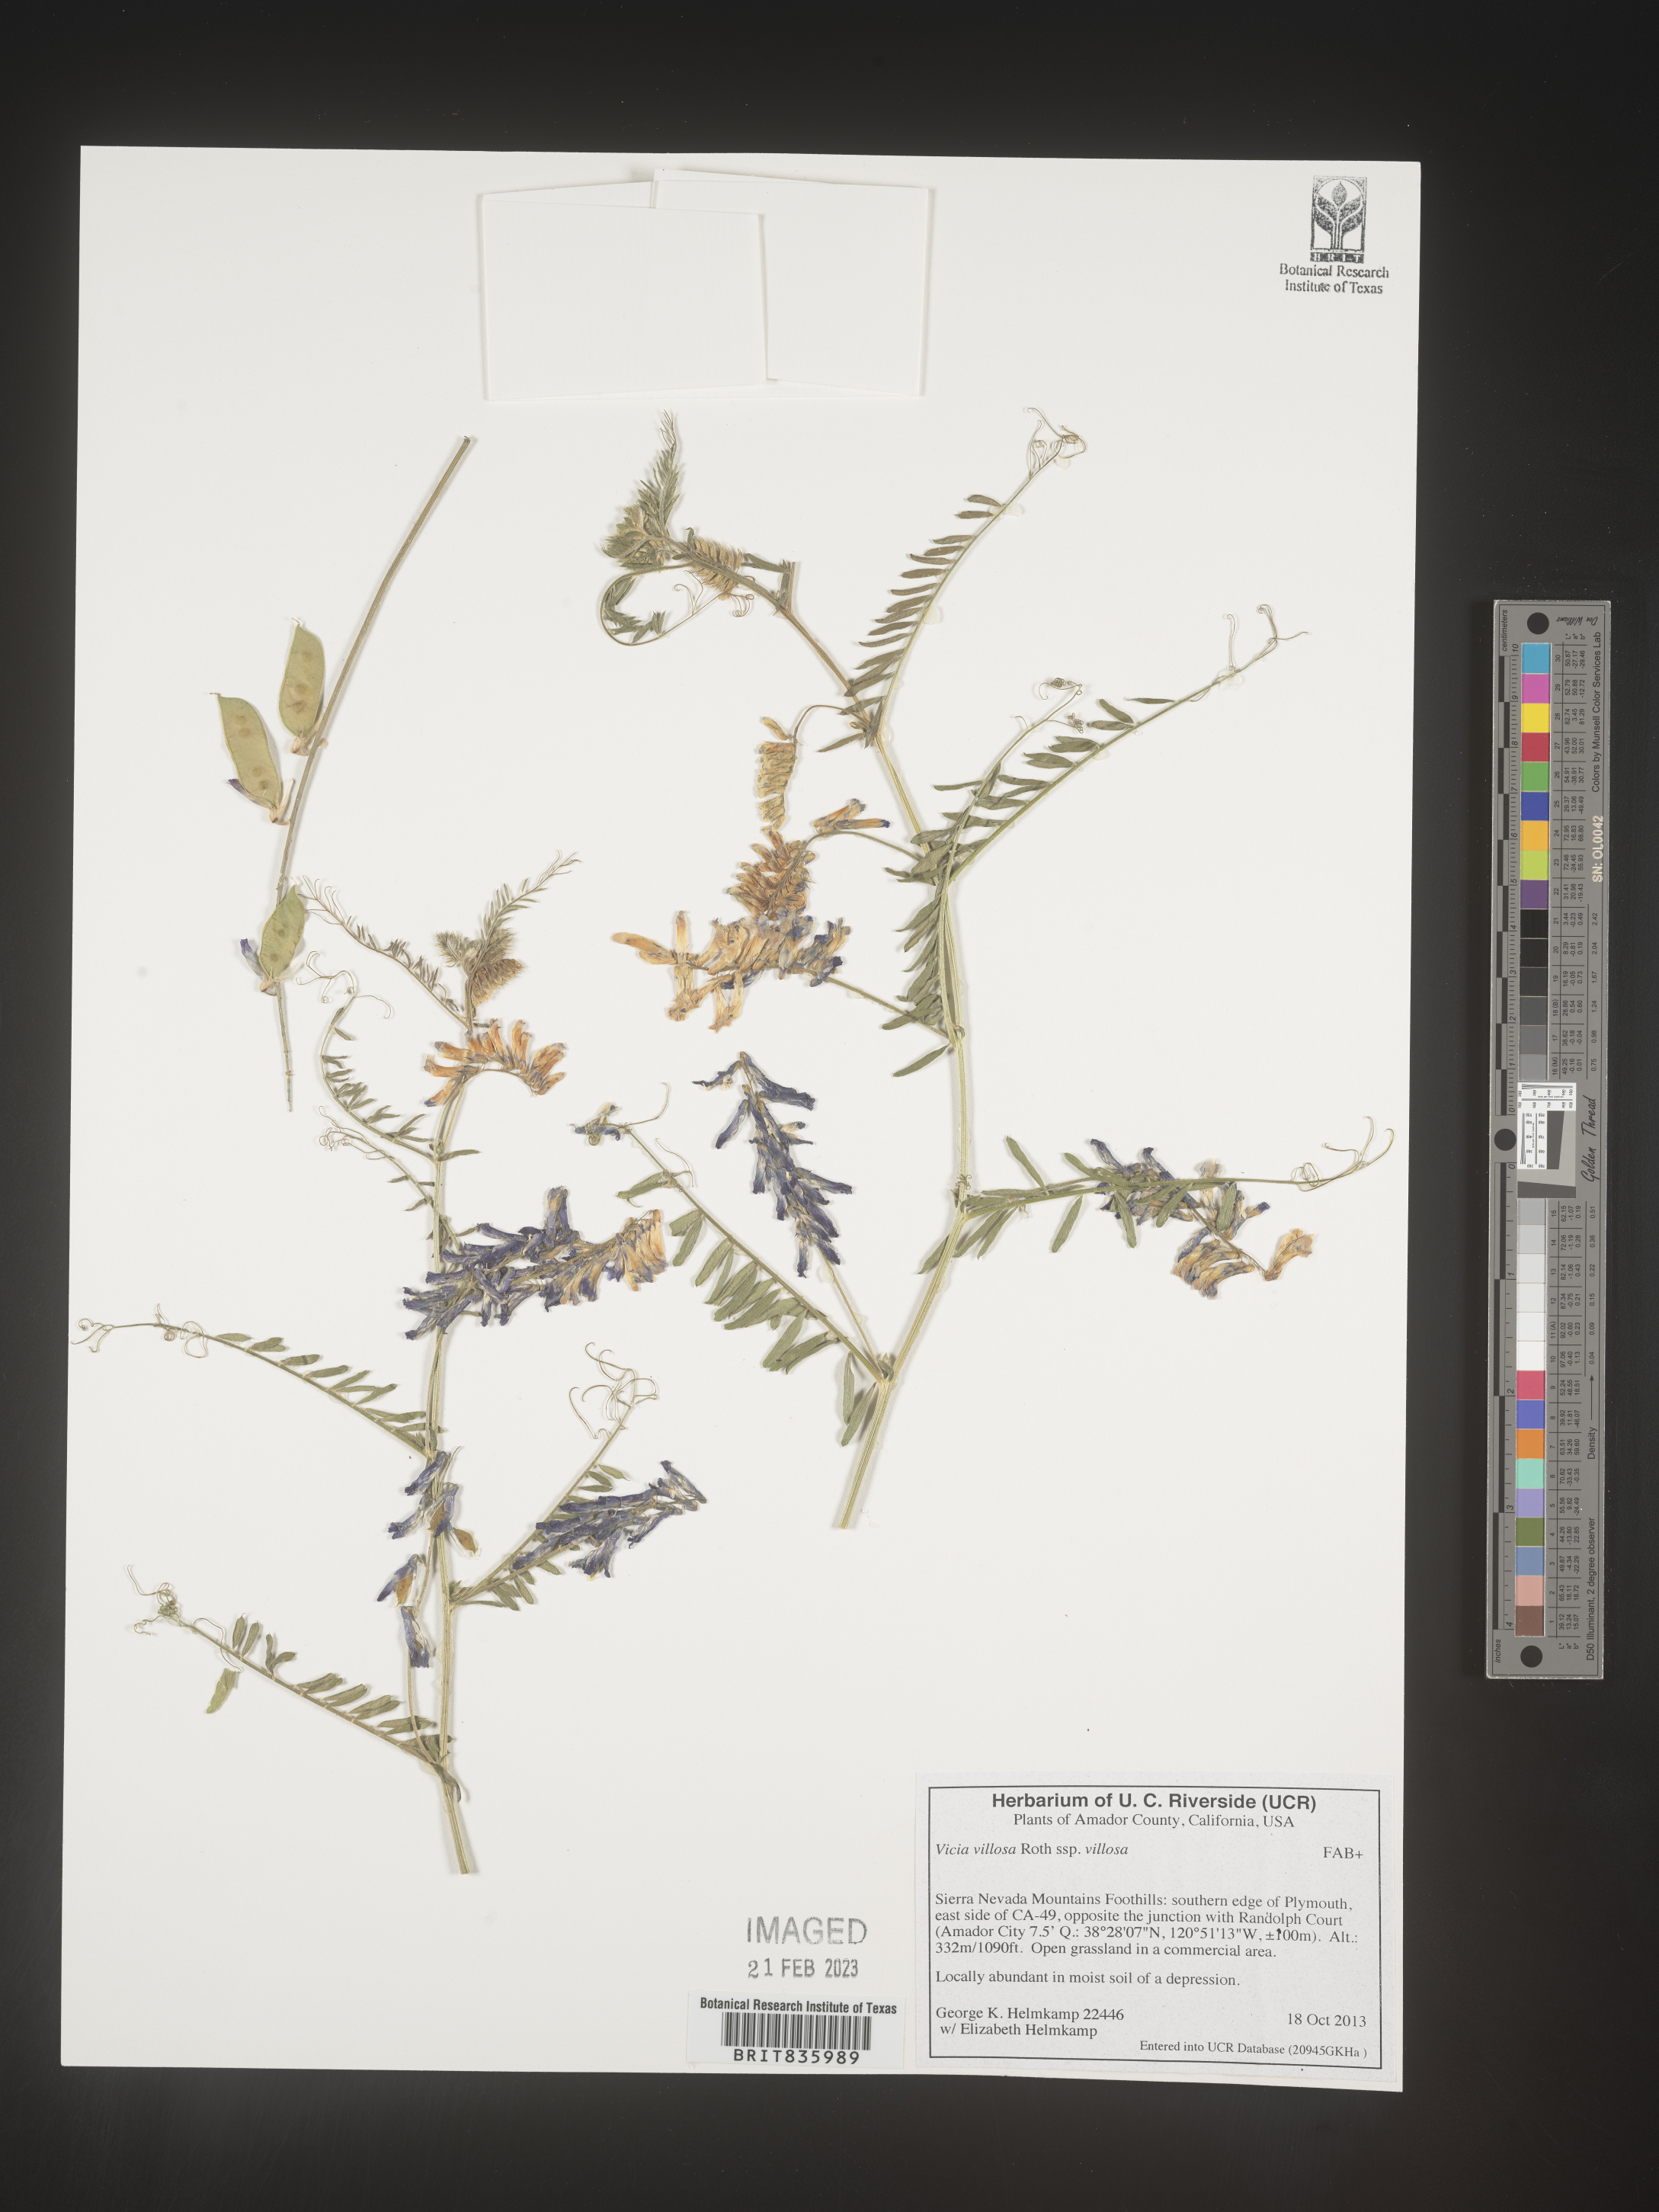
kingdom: Plantae
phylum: Tracheophyta
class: Magnoliopsida
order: Fabales
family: Fabaceae
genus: Vicia
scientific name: Vicia villosa
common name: Fodder vetch
